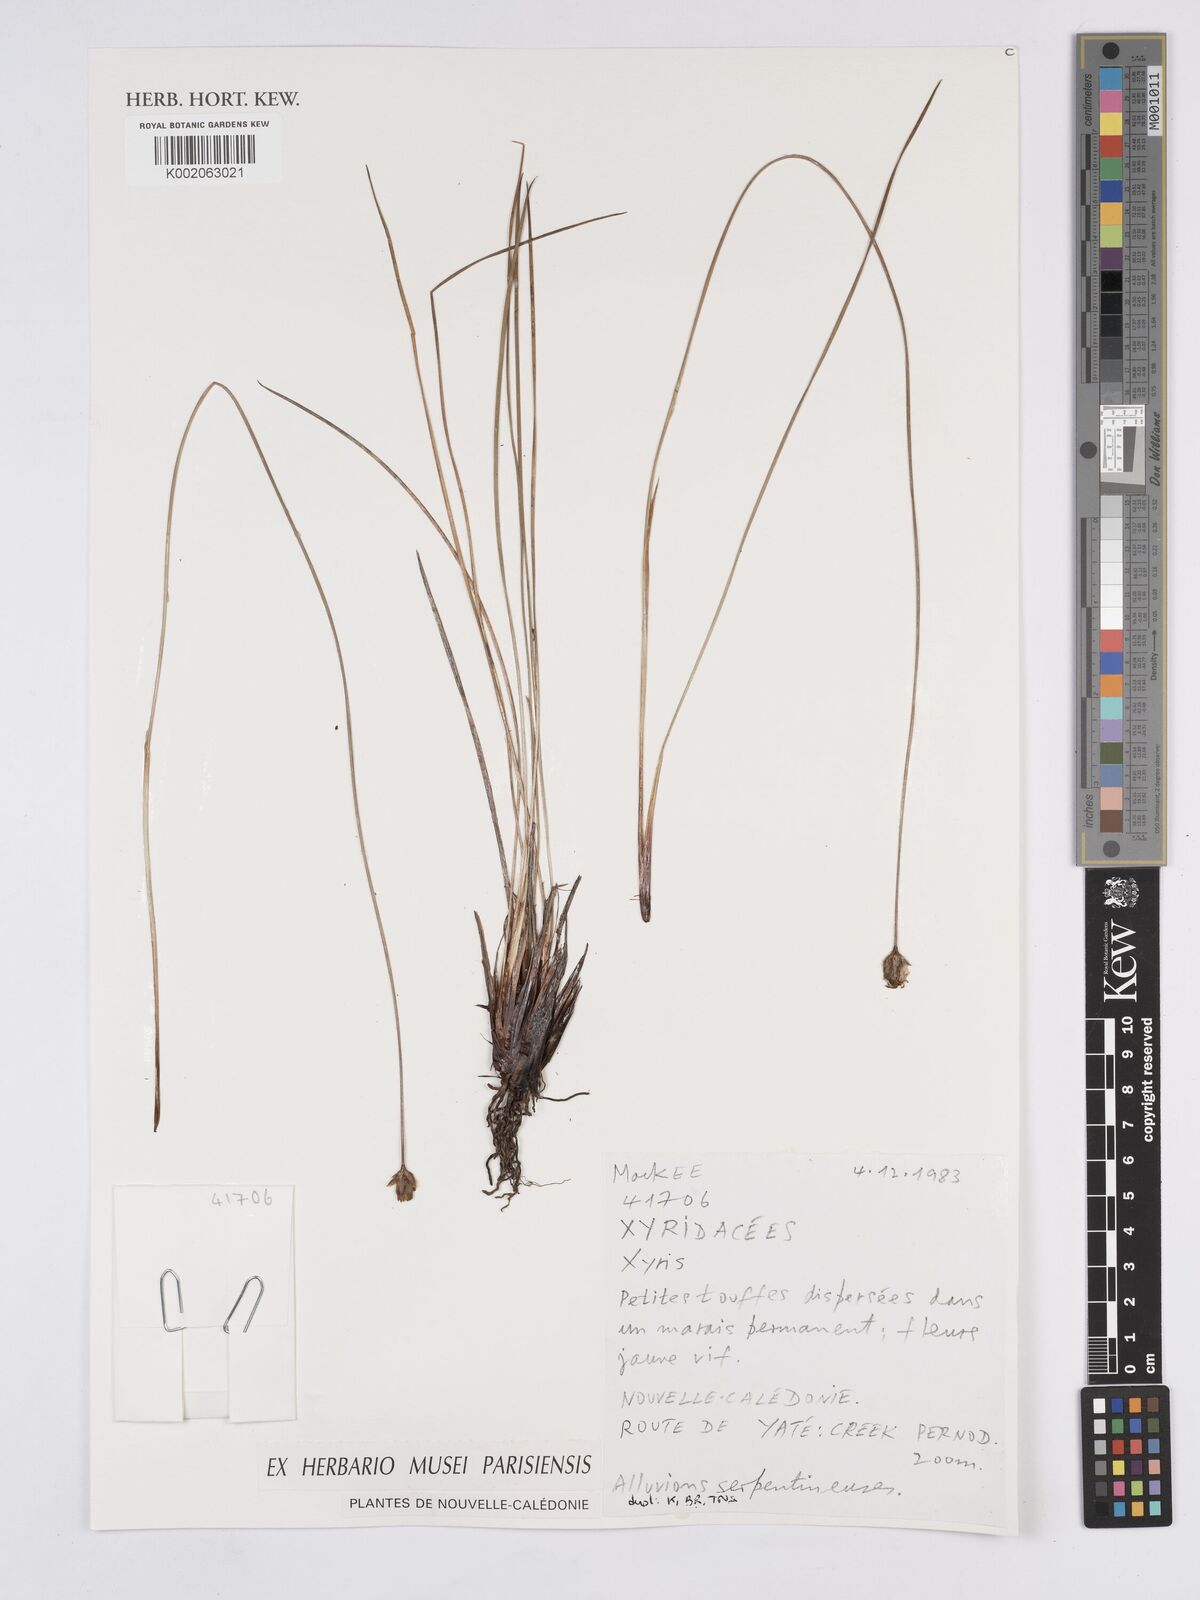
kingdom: Plantae
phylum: Tracheophyta
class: Liliopsida
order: Poales
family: Xyridaceae
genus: Xyris
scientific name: Xyris
